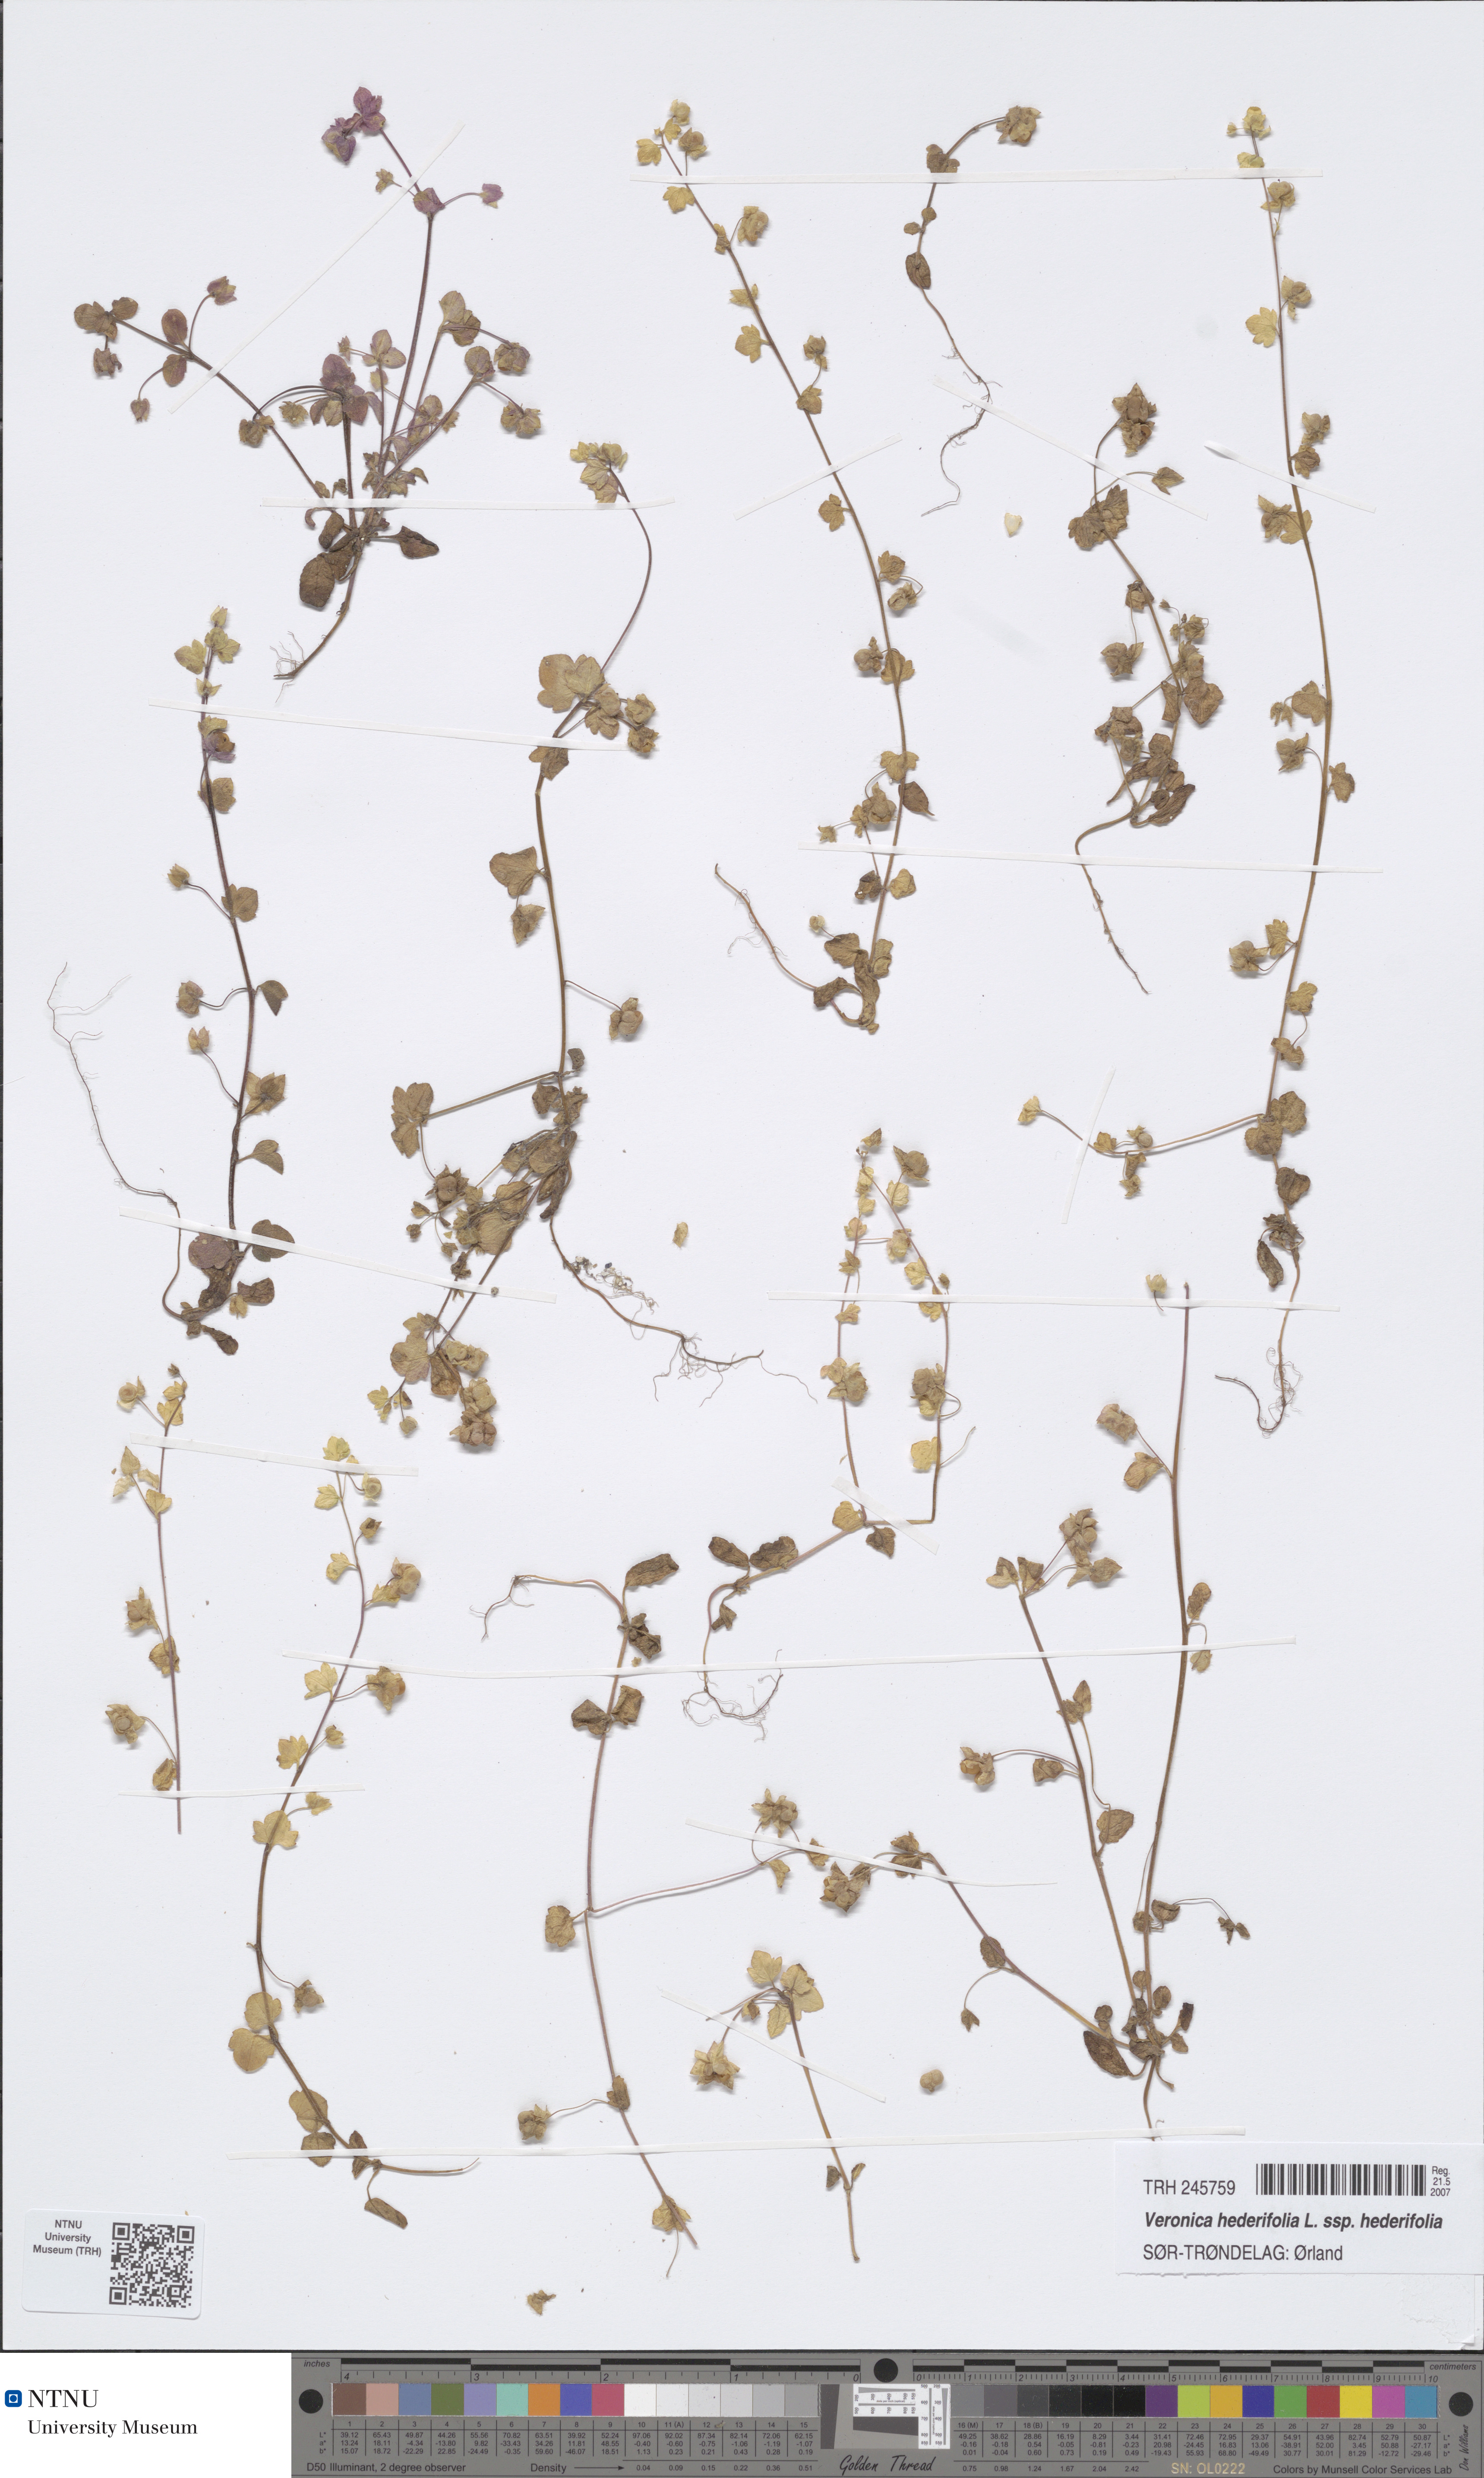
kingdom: Plantae
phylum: Tracheophyta
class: Magnoliopsida
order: Lamiales
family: Plantaginaceae
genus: Veronica
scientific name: Veronica hederifolia
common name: Ivy-leaved speedwell
